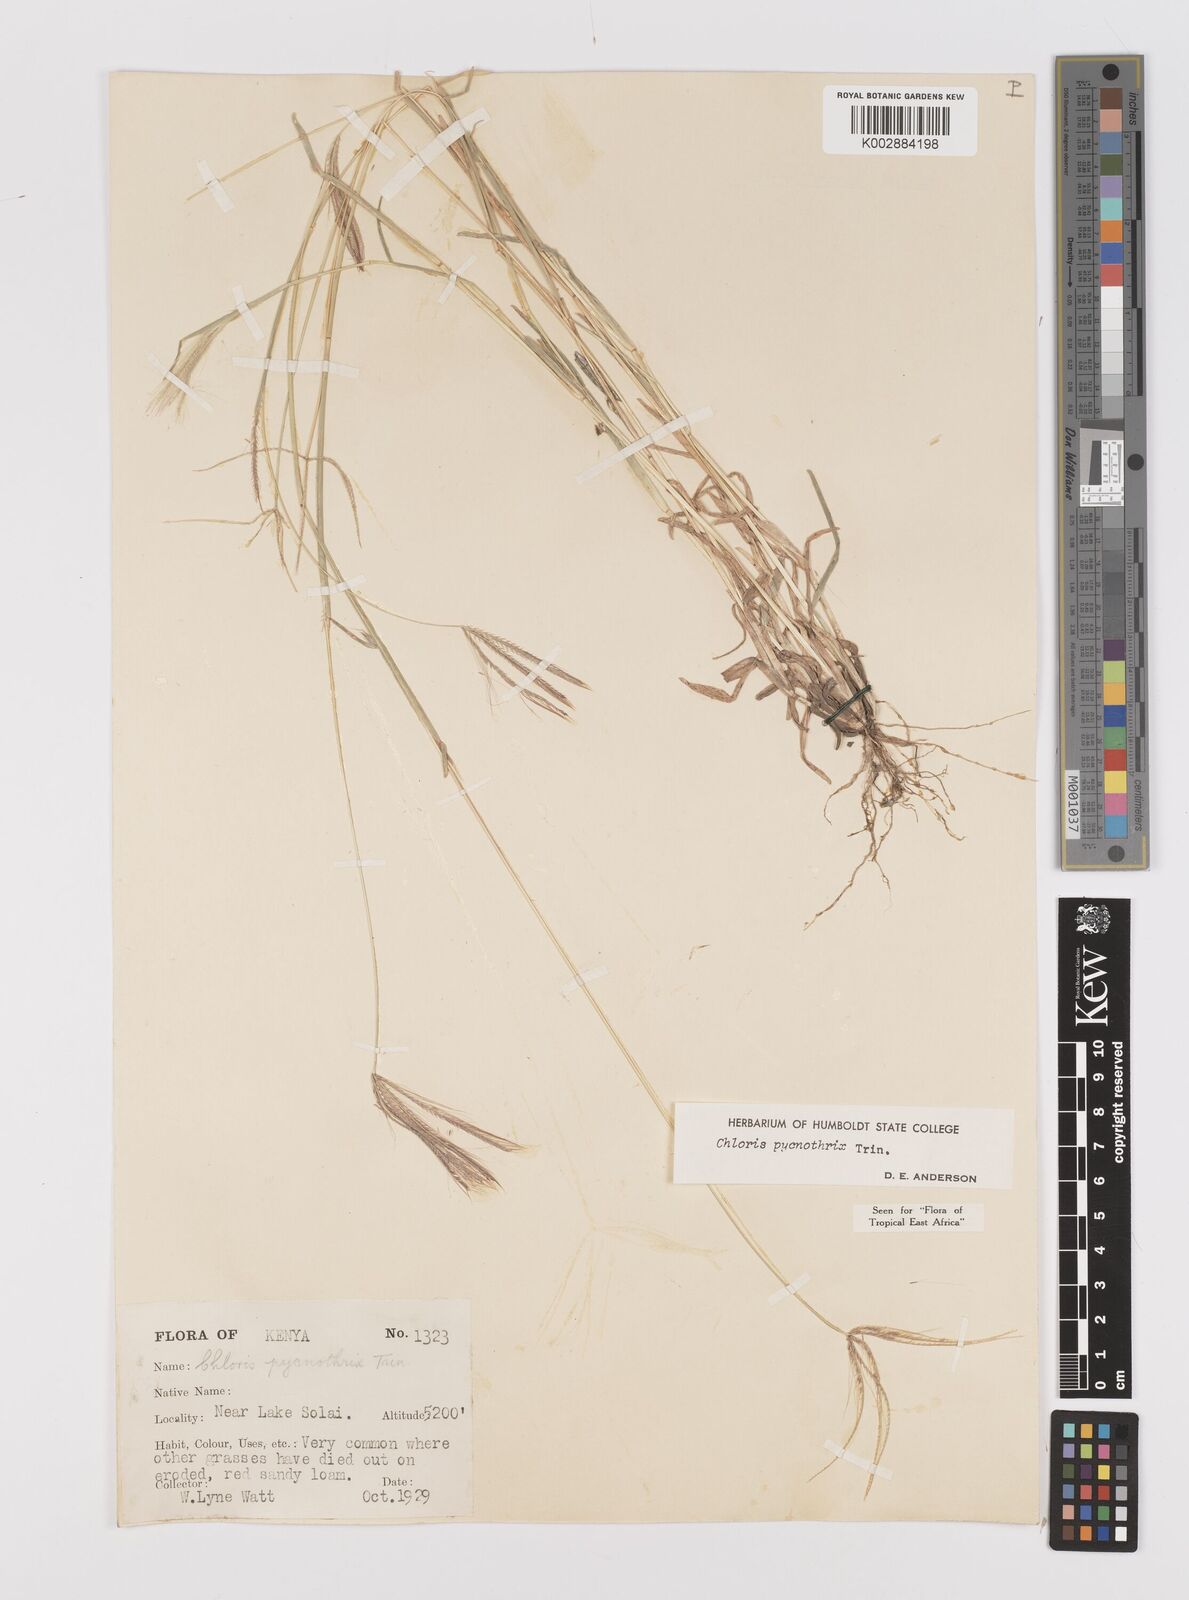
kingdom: Plantae
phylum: Tracheophyta
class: Liliopsida
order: Poales
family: Poaceae
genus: Chloris
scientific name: Chloris pycnothrix
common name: Spiderweb chloris
